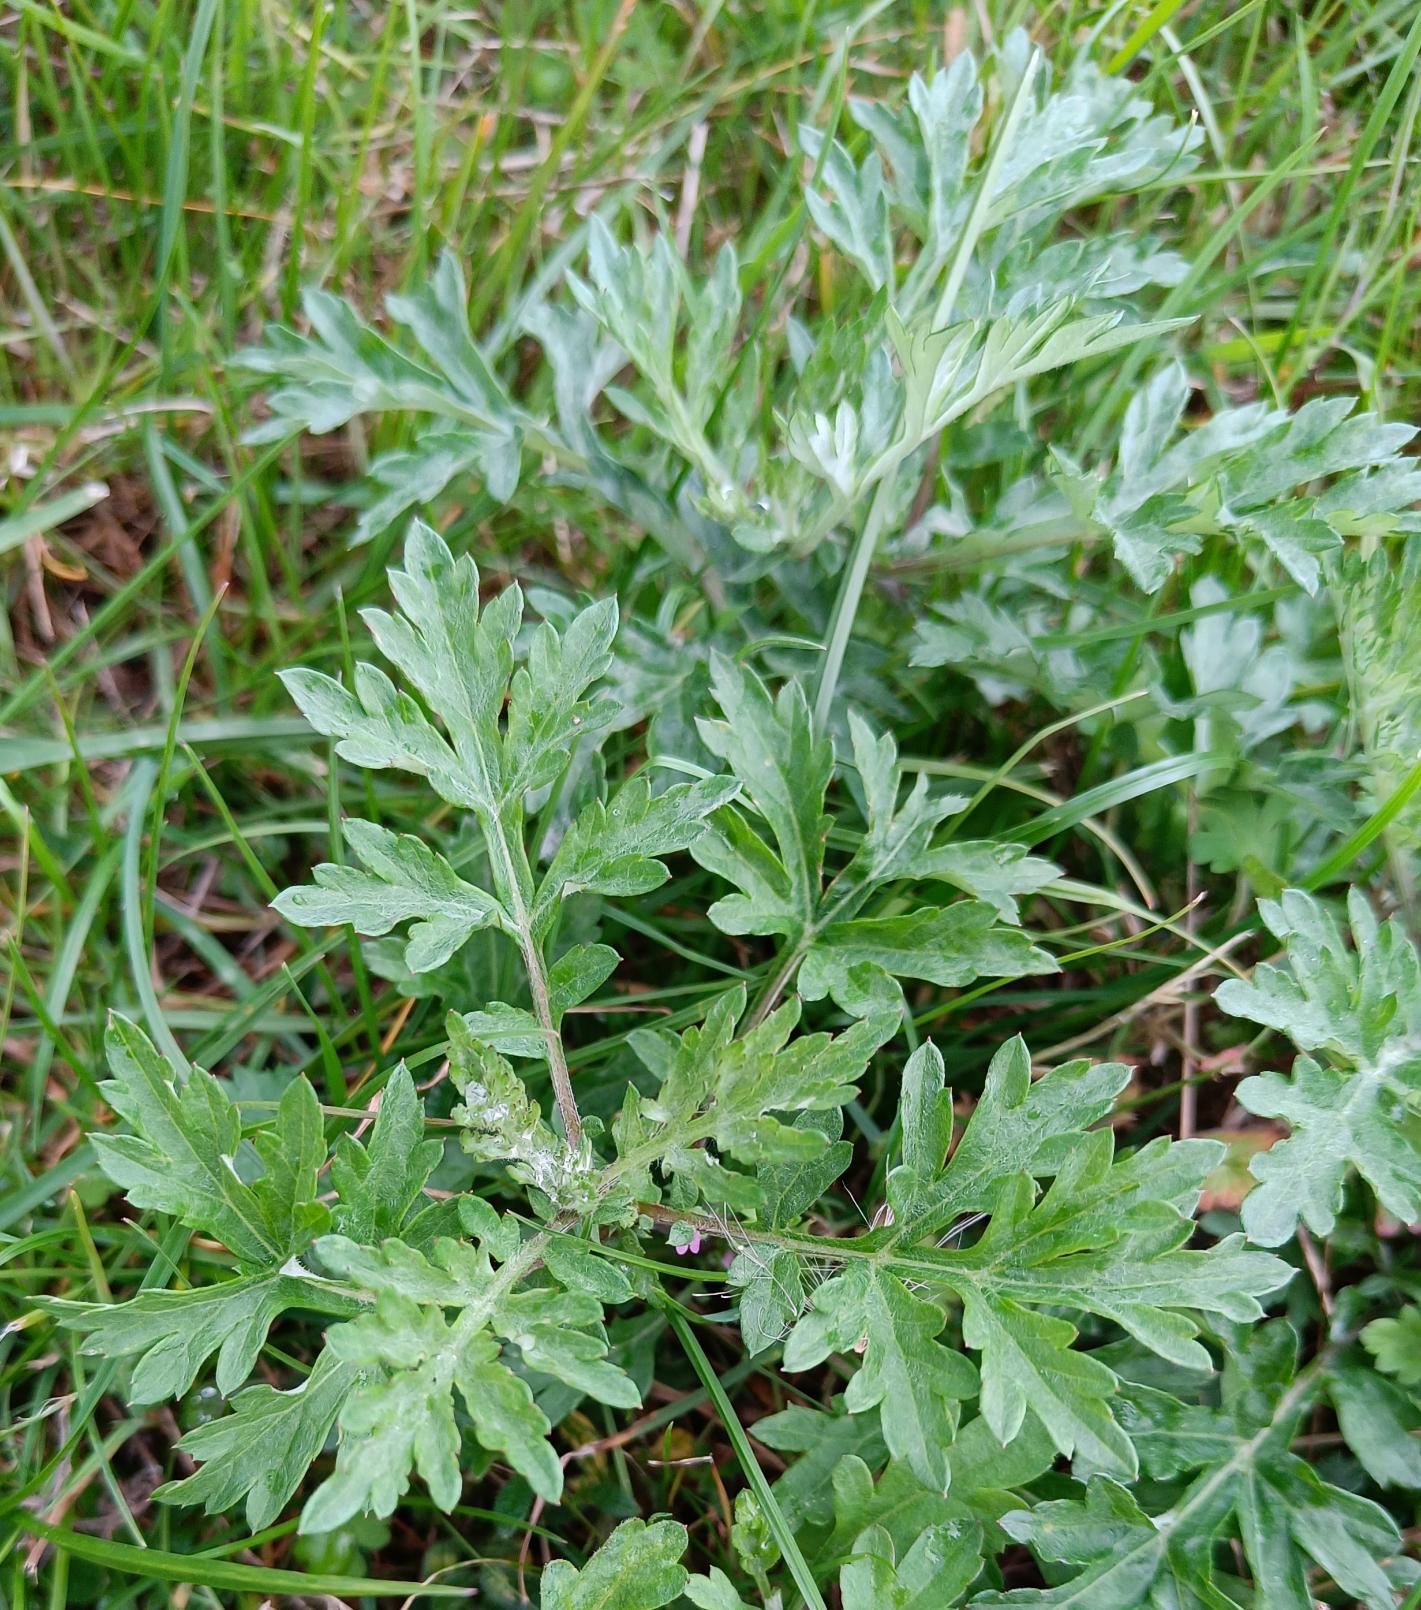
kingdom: Plantae
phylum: Tracheophyta
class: Magnoliopsida
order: Asterales
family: Asteraceae
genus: Artemisia
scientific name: Artemisia vulgaris
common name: Grå-bynke
